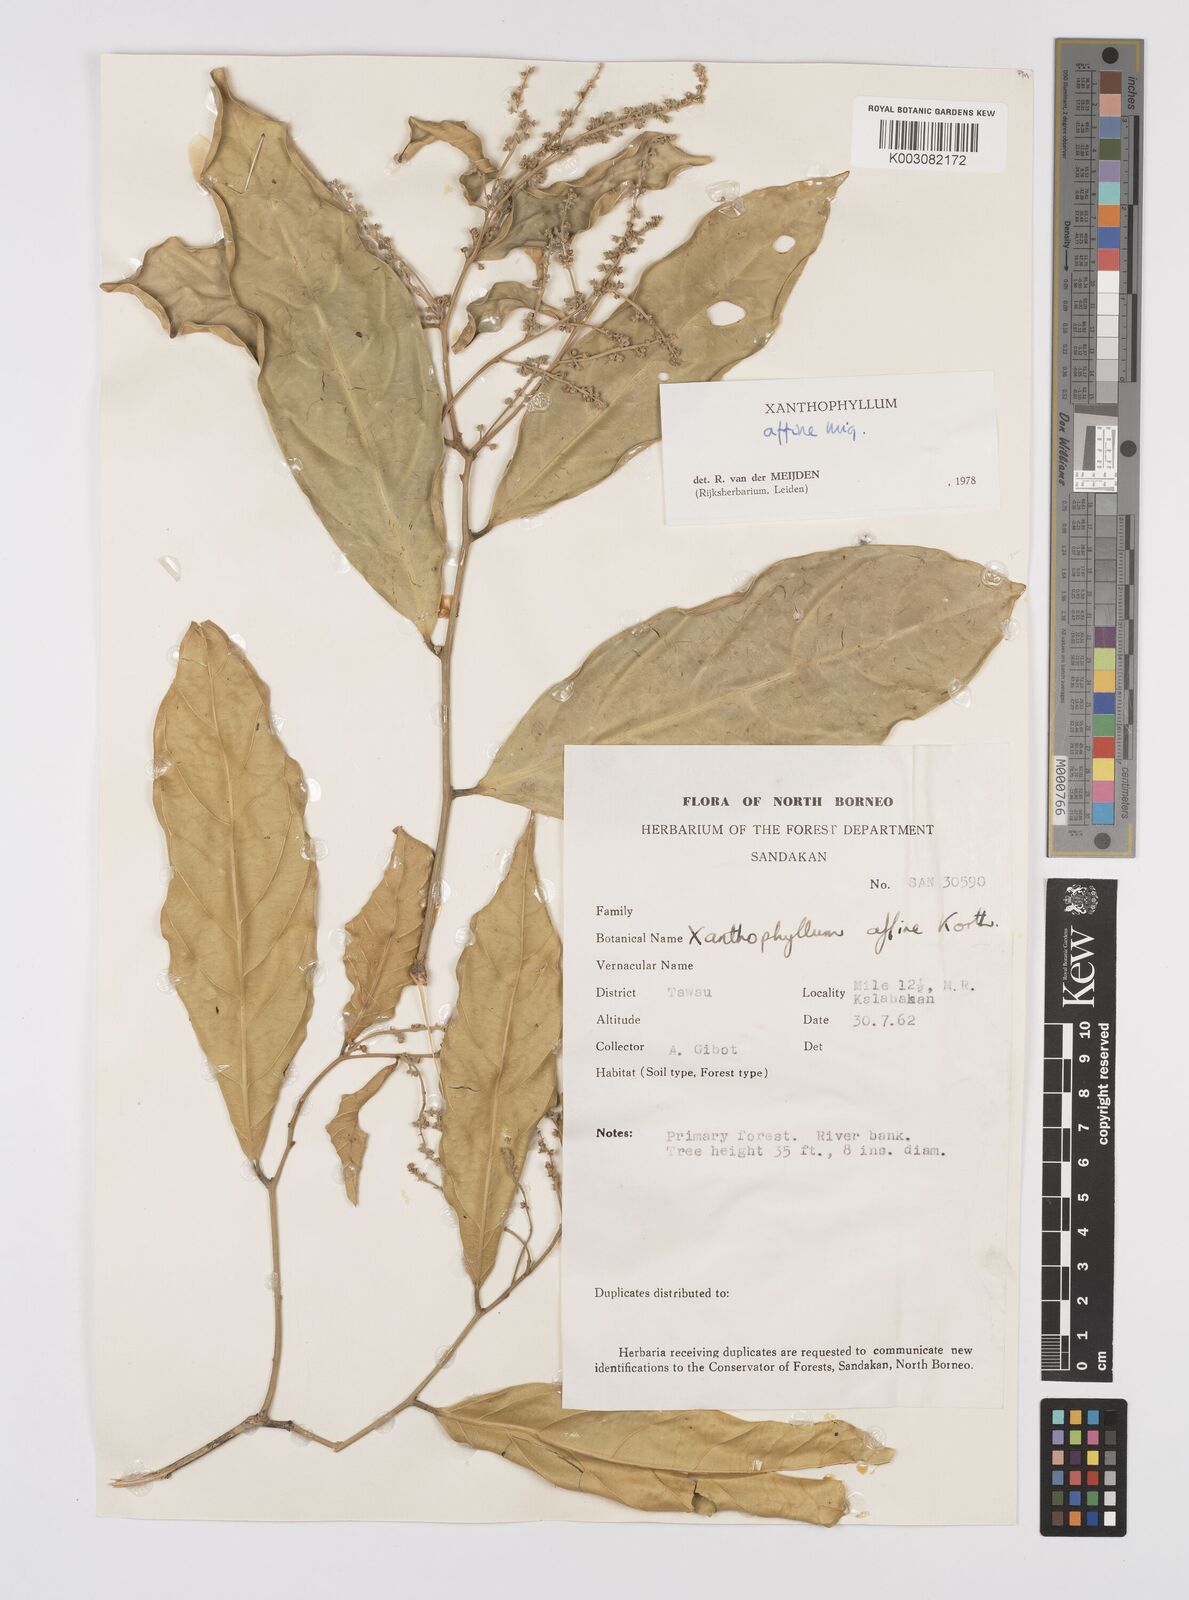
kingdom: Plantae
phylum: Tracheophyta
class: Magnoliopsida
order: Fabales
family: Polygalaceae
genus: Xanthophyllum
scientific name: Xanthophyllum flavescens
